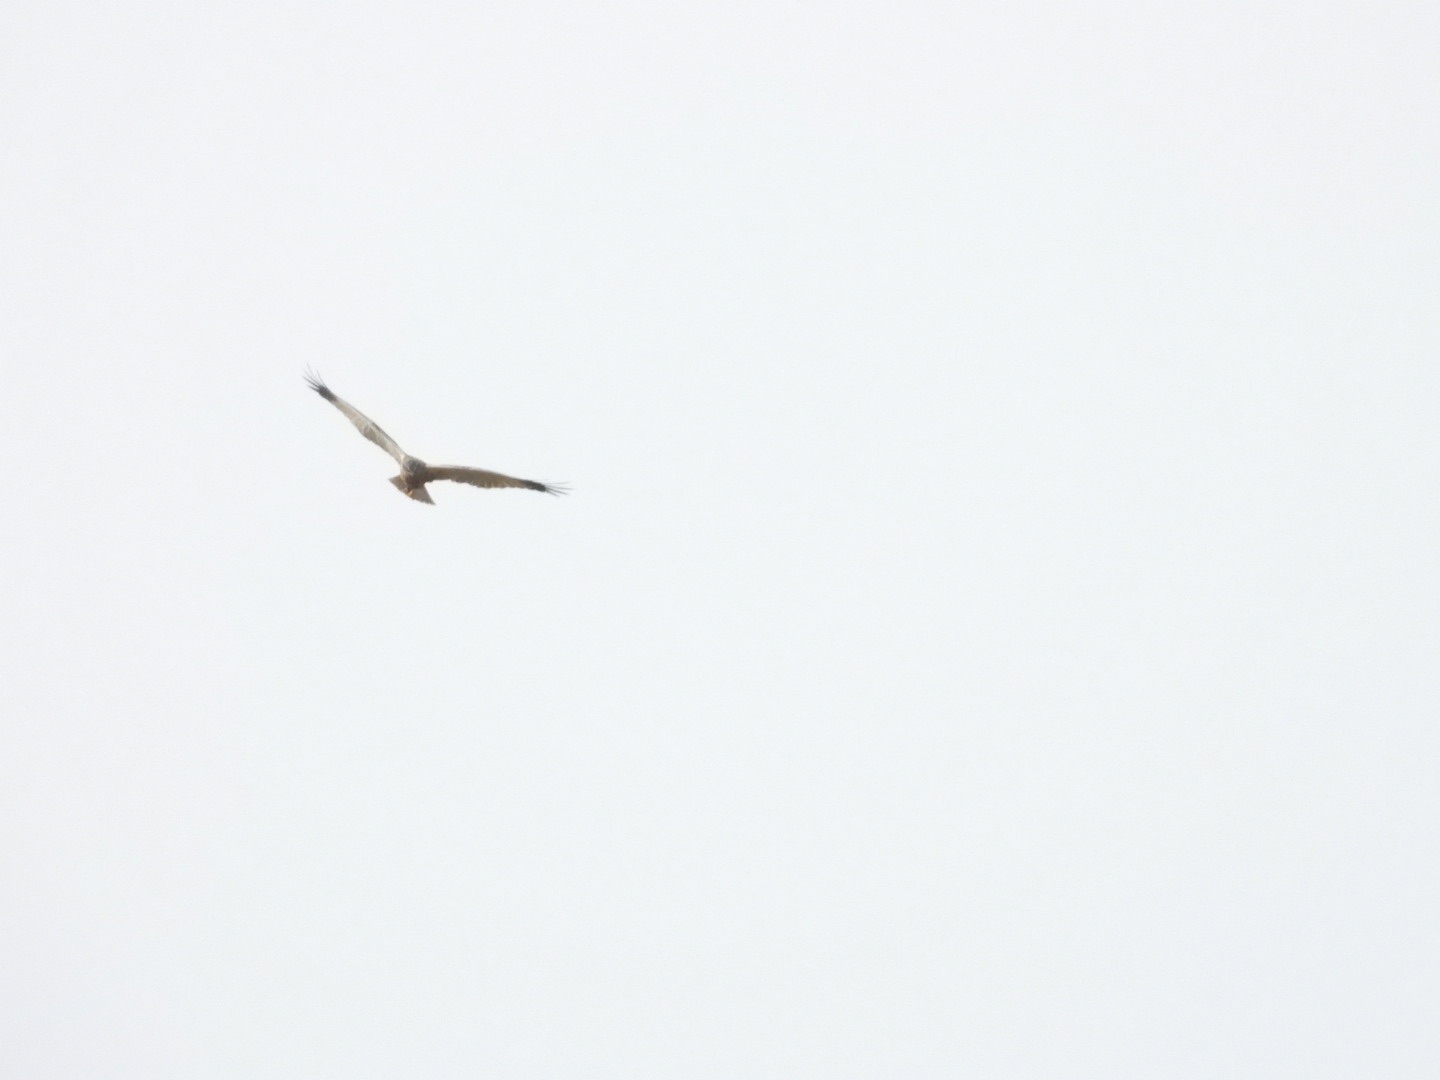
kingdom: Animalia
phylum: Chordata
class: Aves
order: Accipitriformes
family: Accipitridae
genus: Circus
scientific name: Circus aeruginosus
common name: Rørhøg
